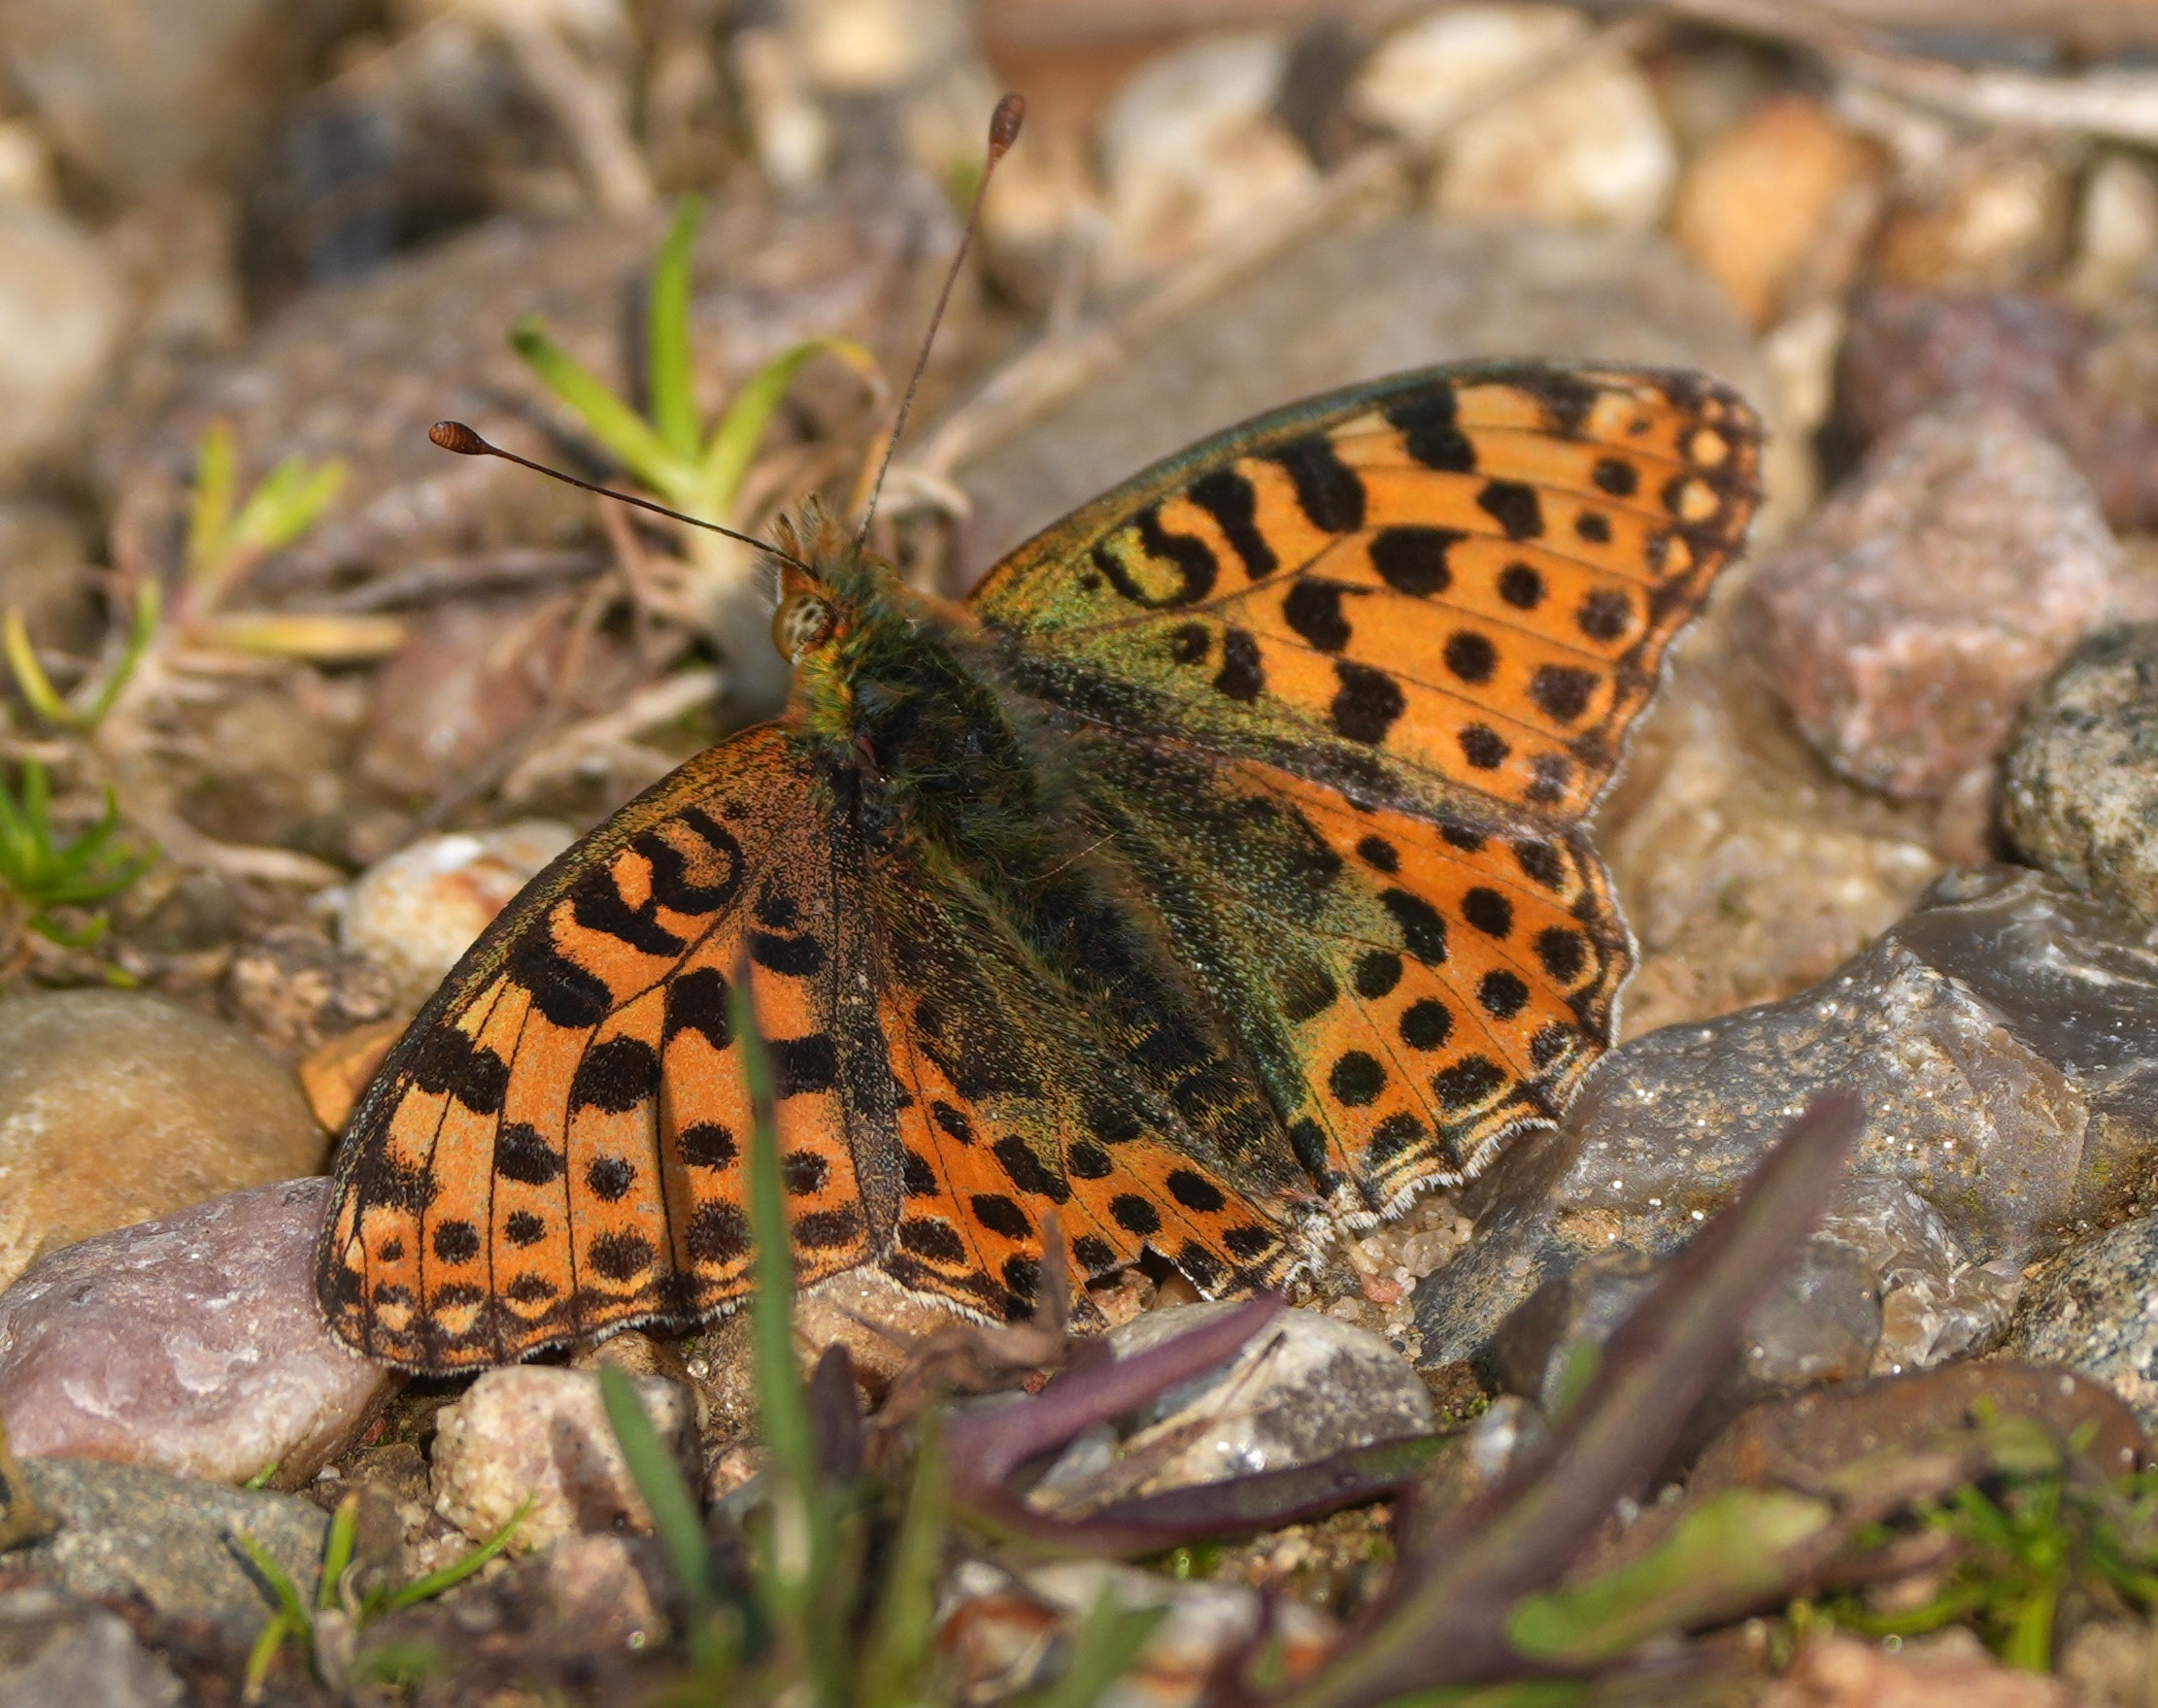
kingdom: Animalia
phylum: Arthropoda
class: Insecta
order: Lepidoptera
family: Nymphalidae
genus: Issoria
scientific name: Issoria lathonia
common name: Storplettet perlemorsommerfugl
